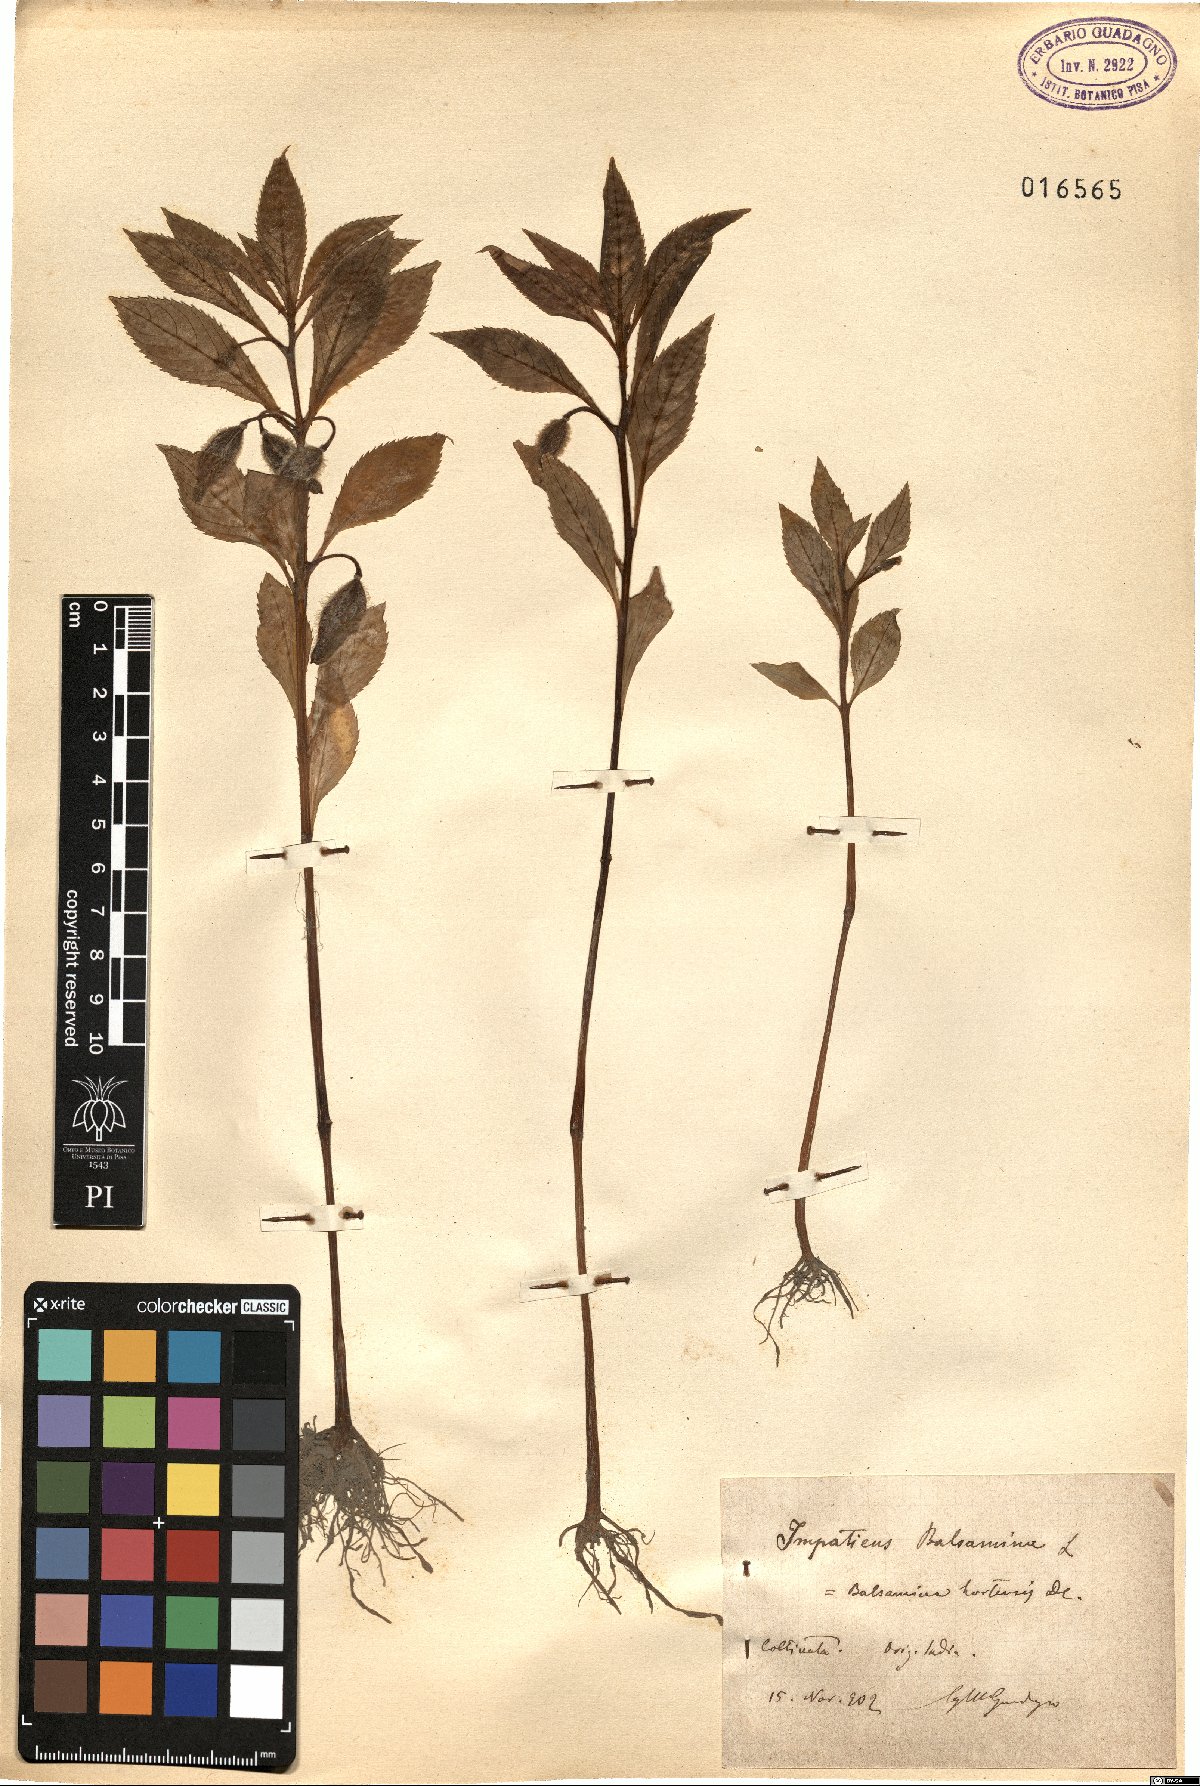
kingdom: Plantae
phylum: Tracheophyta
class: Magnoliopsida
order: Ericales
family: Balsaminaceae
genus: Impatiens
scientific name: Impatiens balsamina
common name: Balsam
